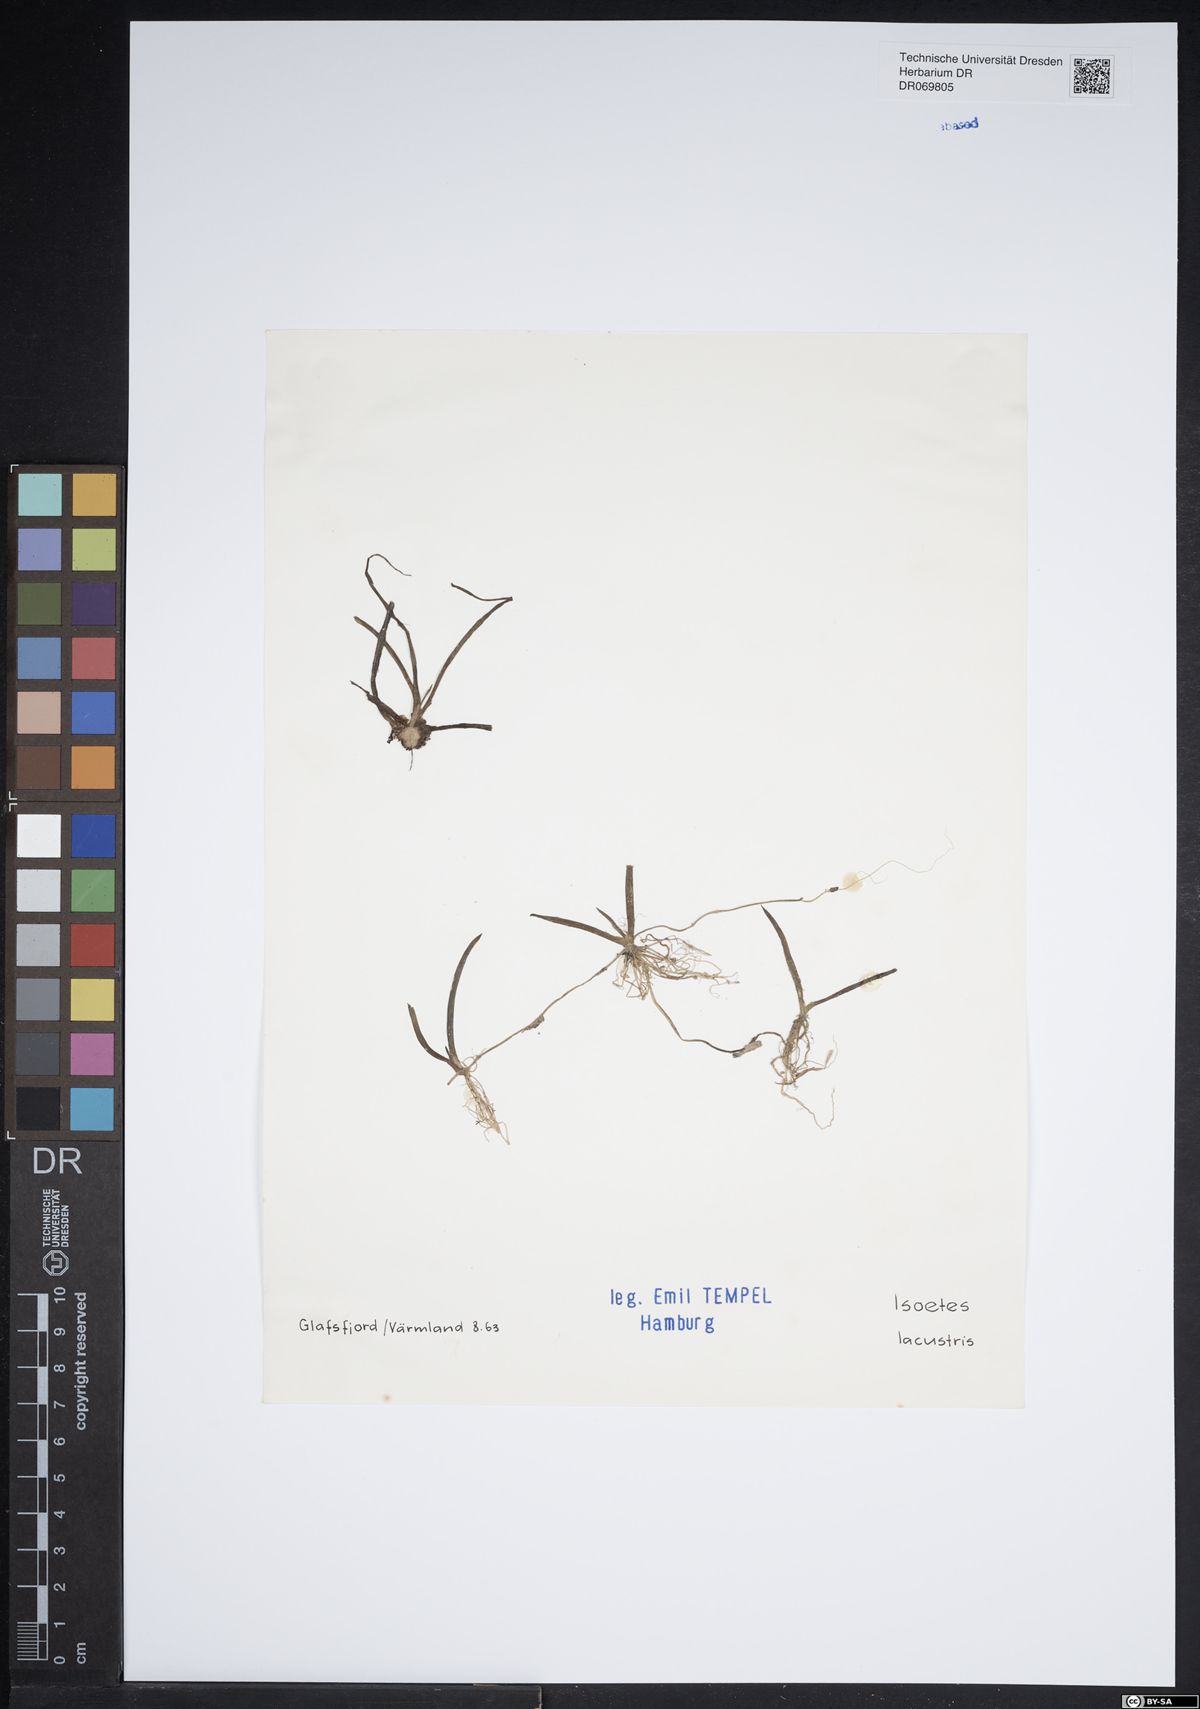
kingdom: Plantae
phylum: Tracheophyta
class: Lycopodiopsida
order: Isoetales
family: Isoetaceae
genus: Isoetes
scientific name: Isoetes lacustris
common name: Common quillwort
